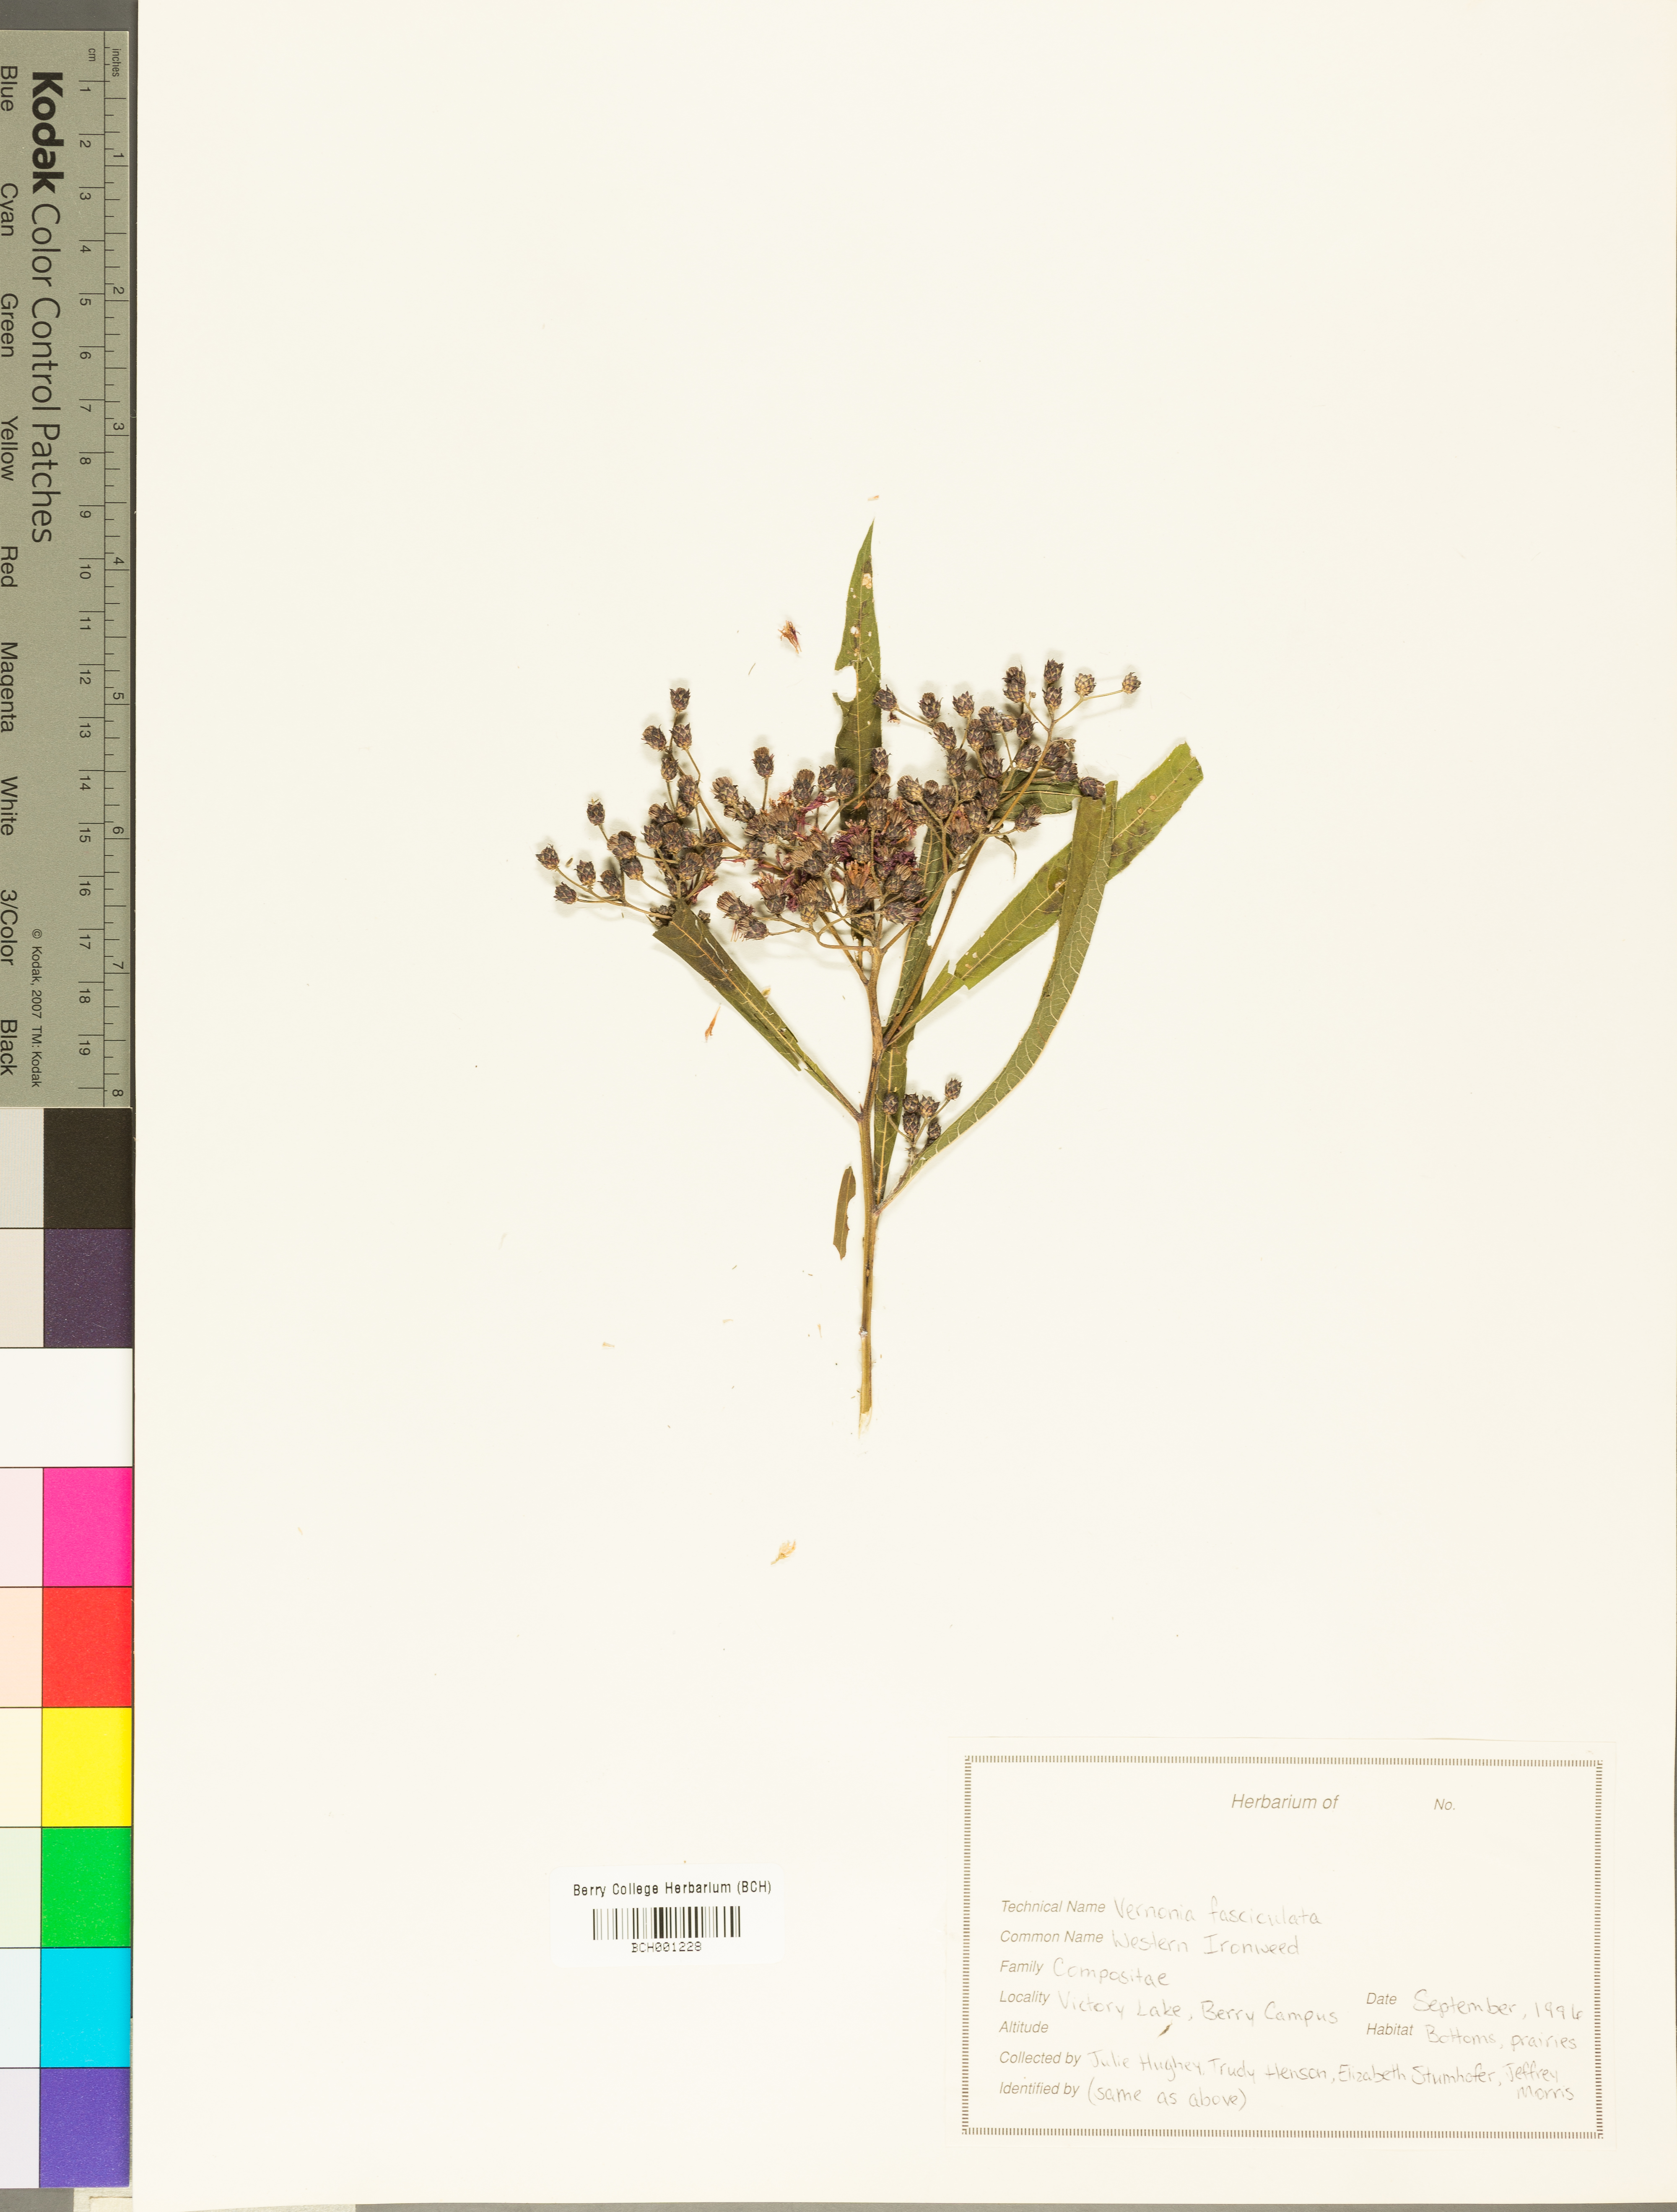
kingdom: Plantae
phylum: Tracheophyta
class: Magnoliopsida
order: Asterales
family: Asteraceae
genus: Vernonia
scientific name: Vernonia fasciculata
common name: Fascicled ironweed
